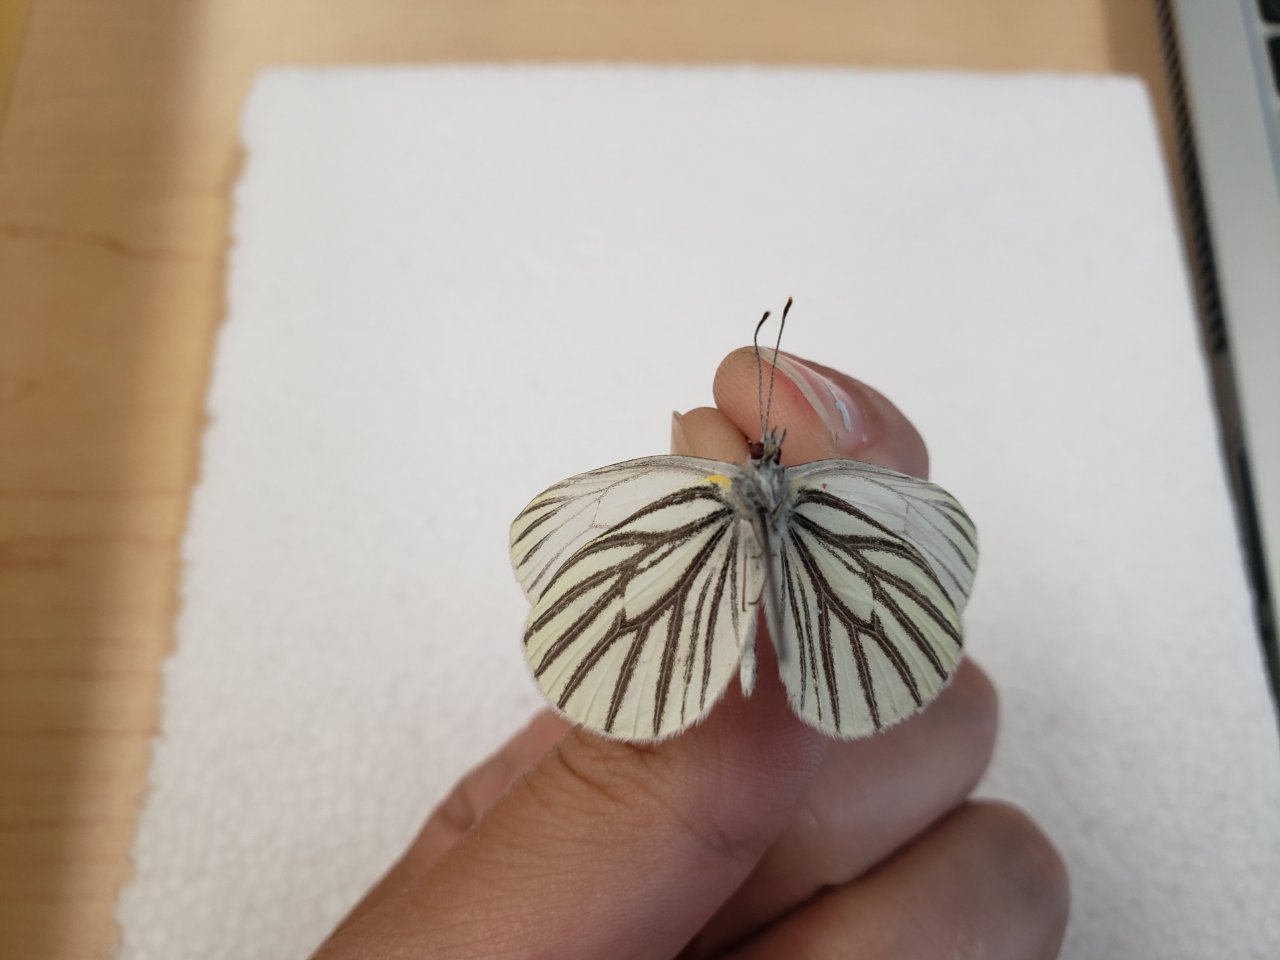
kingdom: Animalia
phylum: Arthropoda
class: Insecta
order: Lepidoptera
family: Pieridae
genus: Pieris
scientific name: Pieris oleracea
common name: Mustard White
